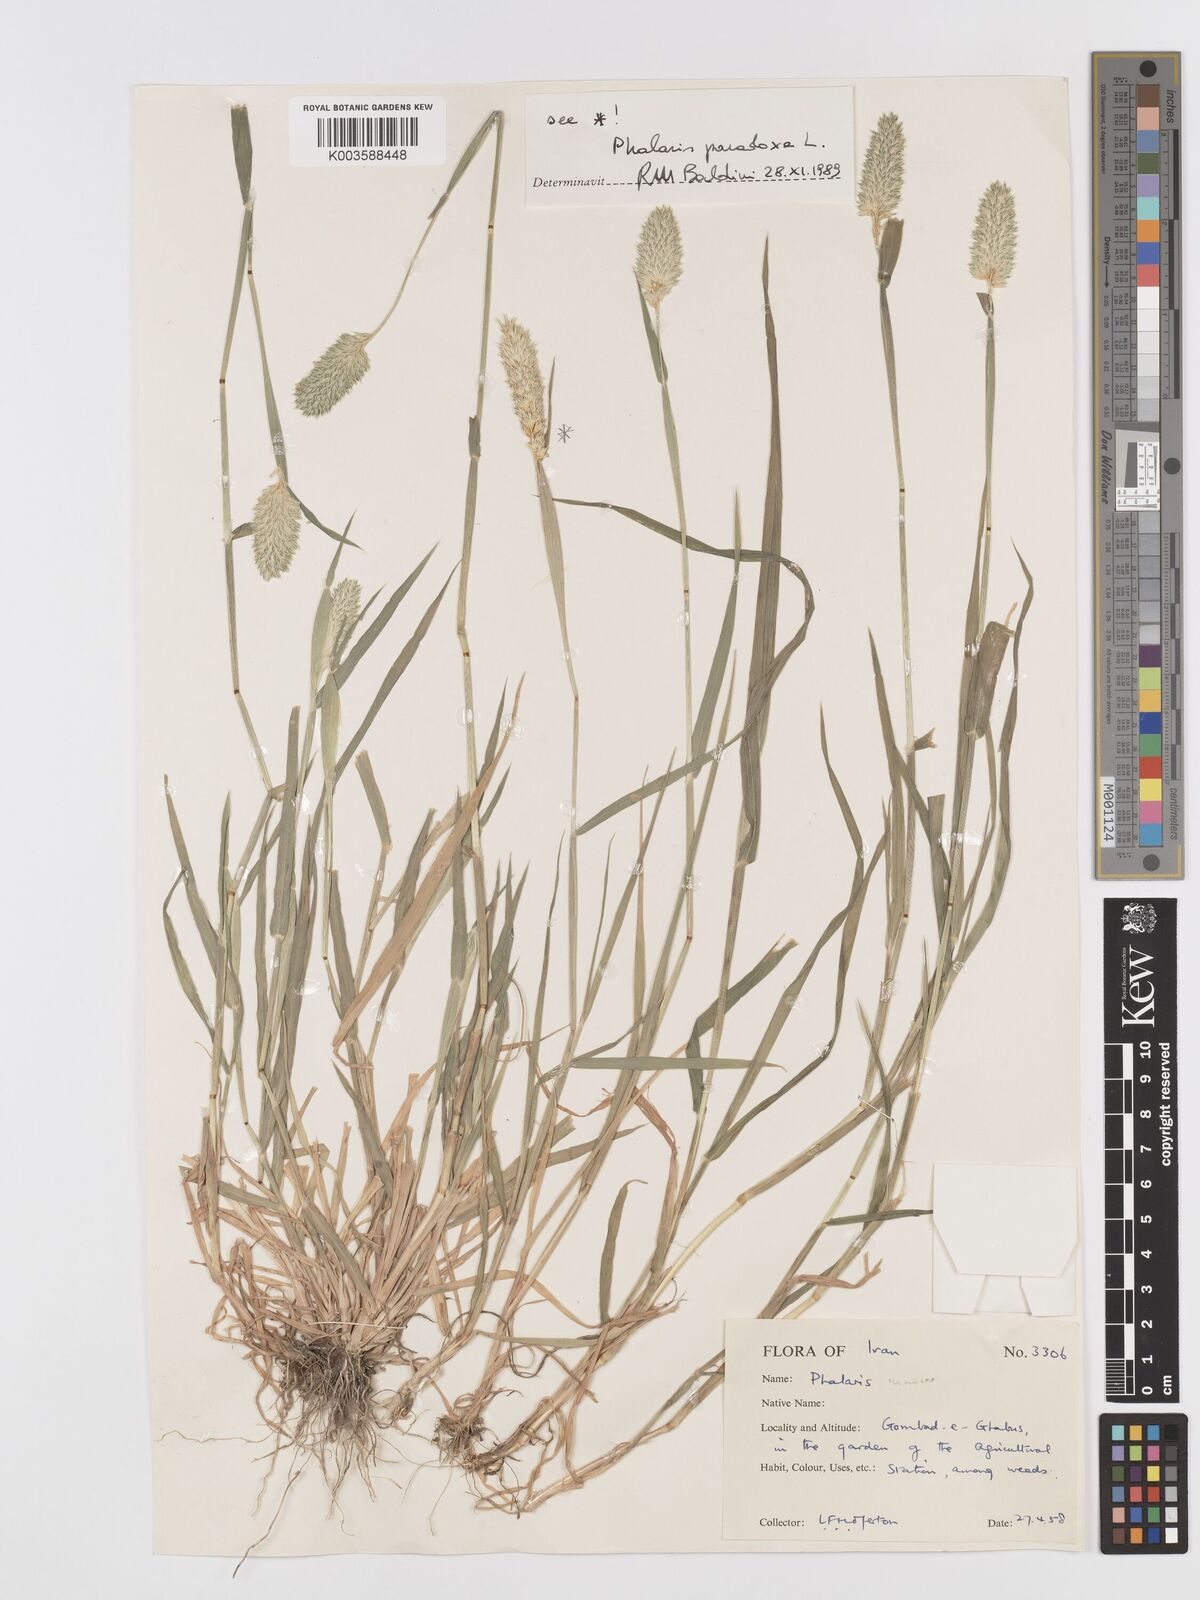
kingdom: Plantae
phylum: Tracheophyta
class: Liliopsida
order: Poales
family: Poaceae
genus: Phalaris
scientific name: Phalaris minor
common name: Littleseed canarygrass
